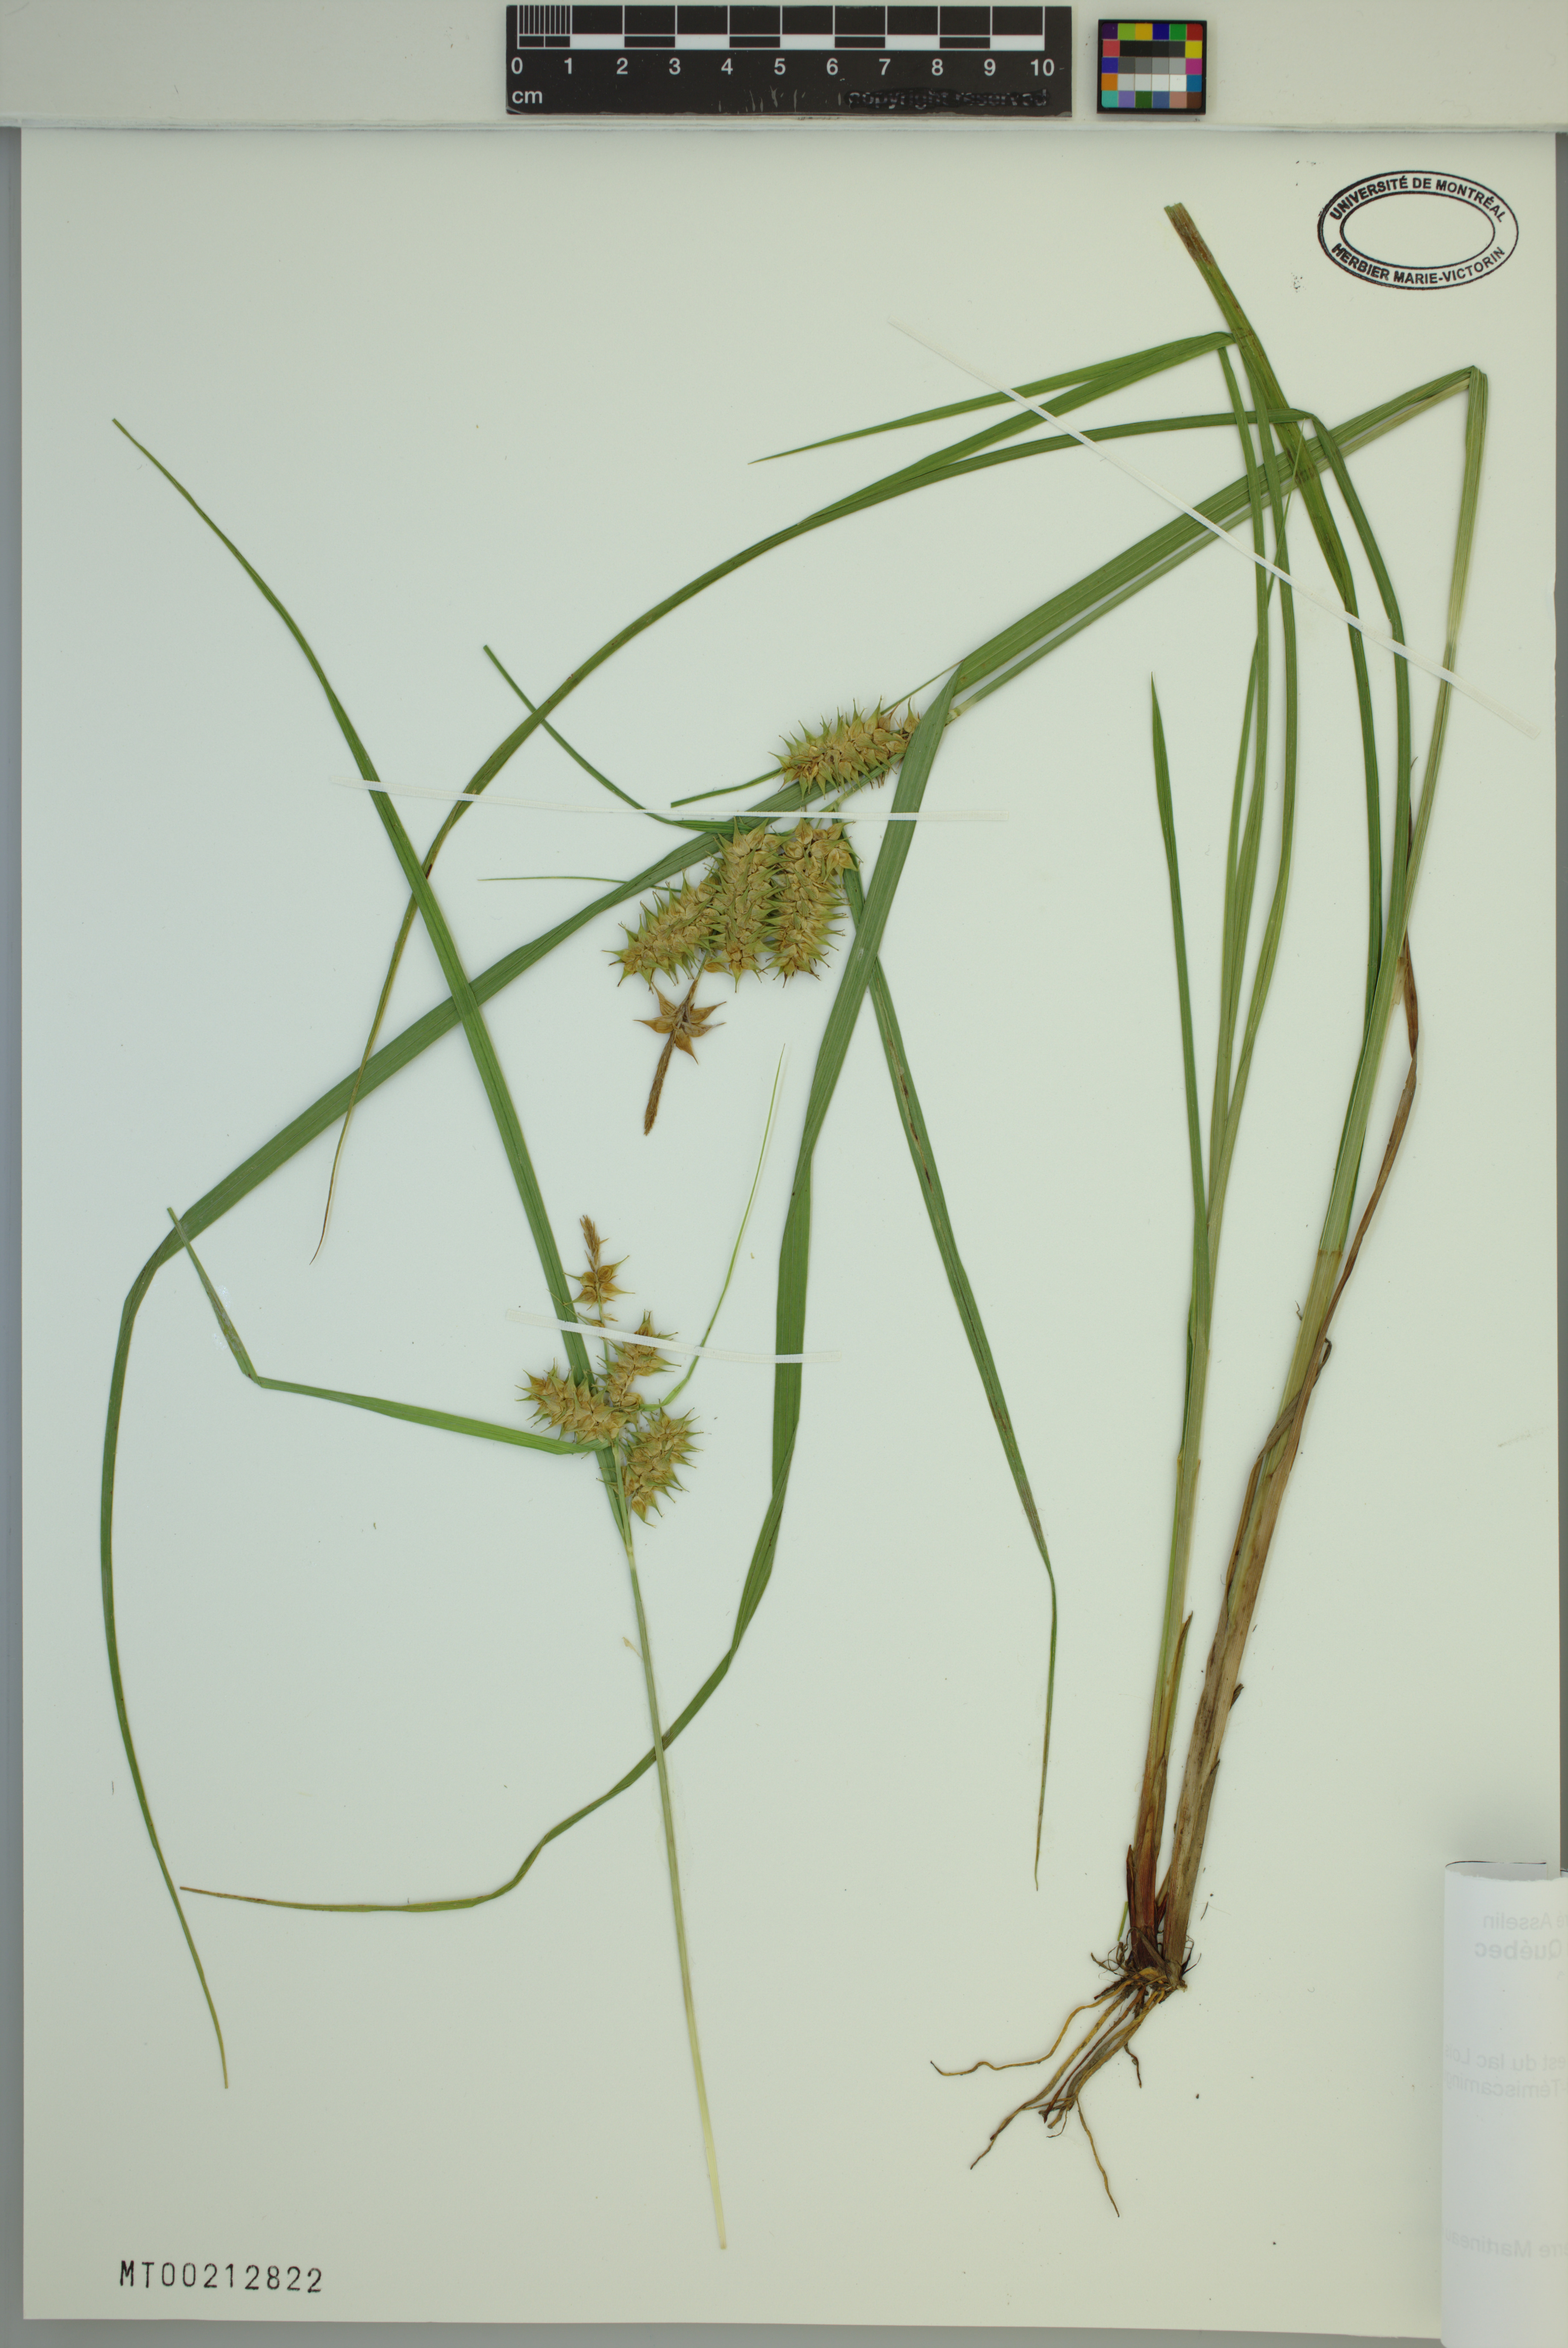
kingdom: Plantae
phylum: Tracheophyta
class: Liliopsida
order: Poales
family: Cyperaceae
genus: Carex
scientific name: Carex retrorsa
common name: Knot-sheath sedge
